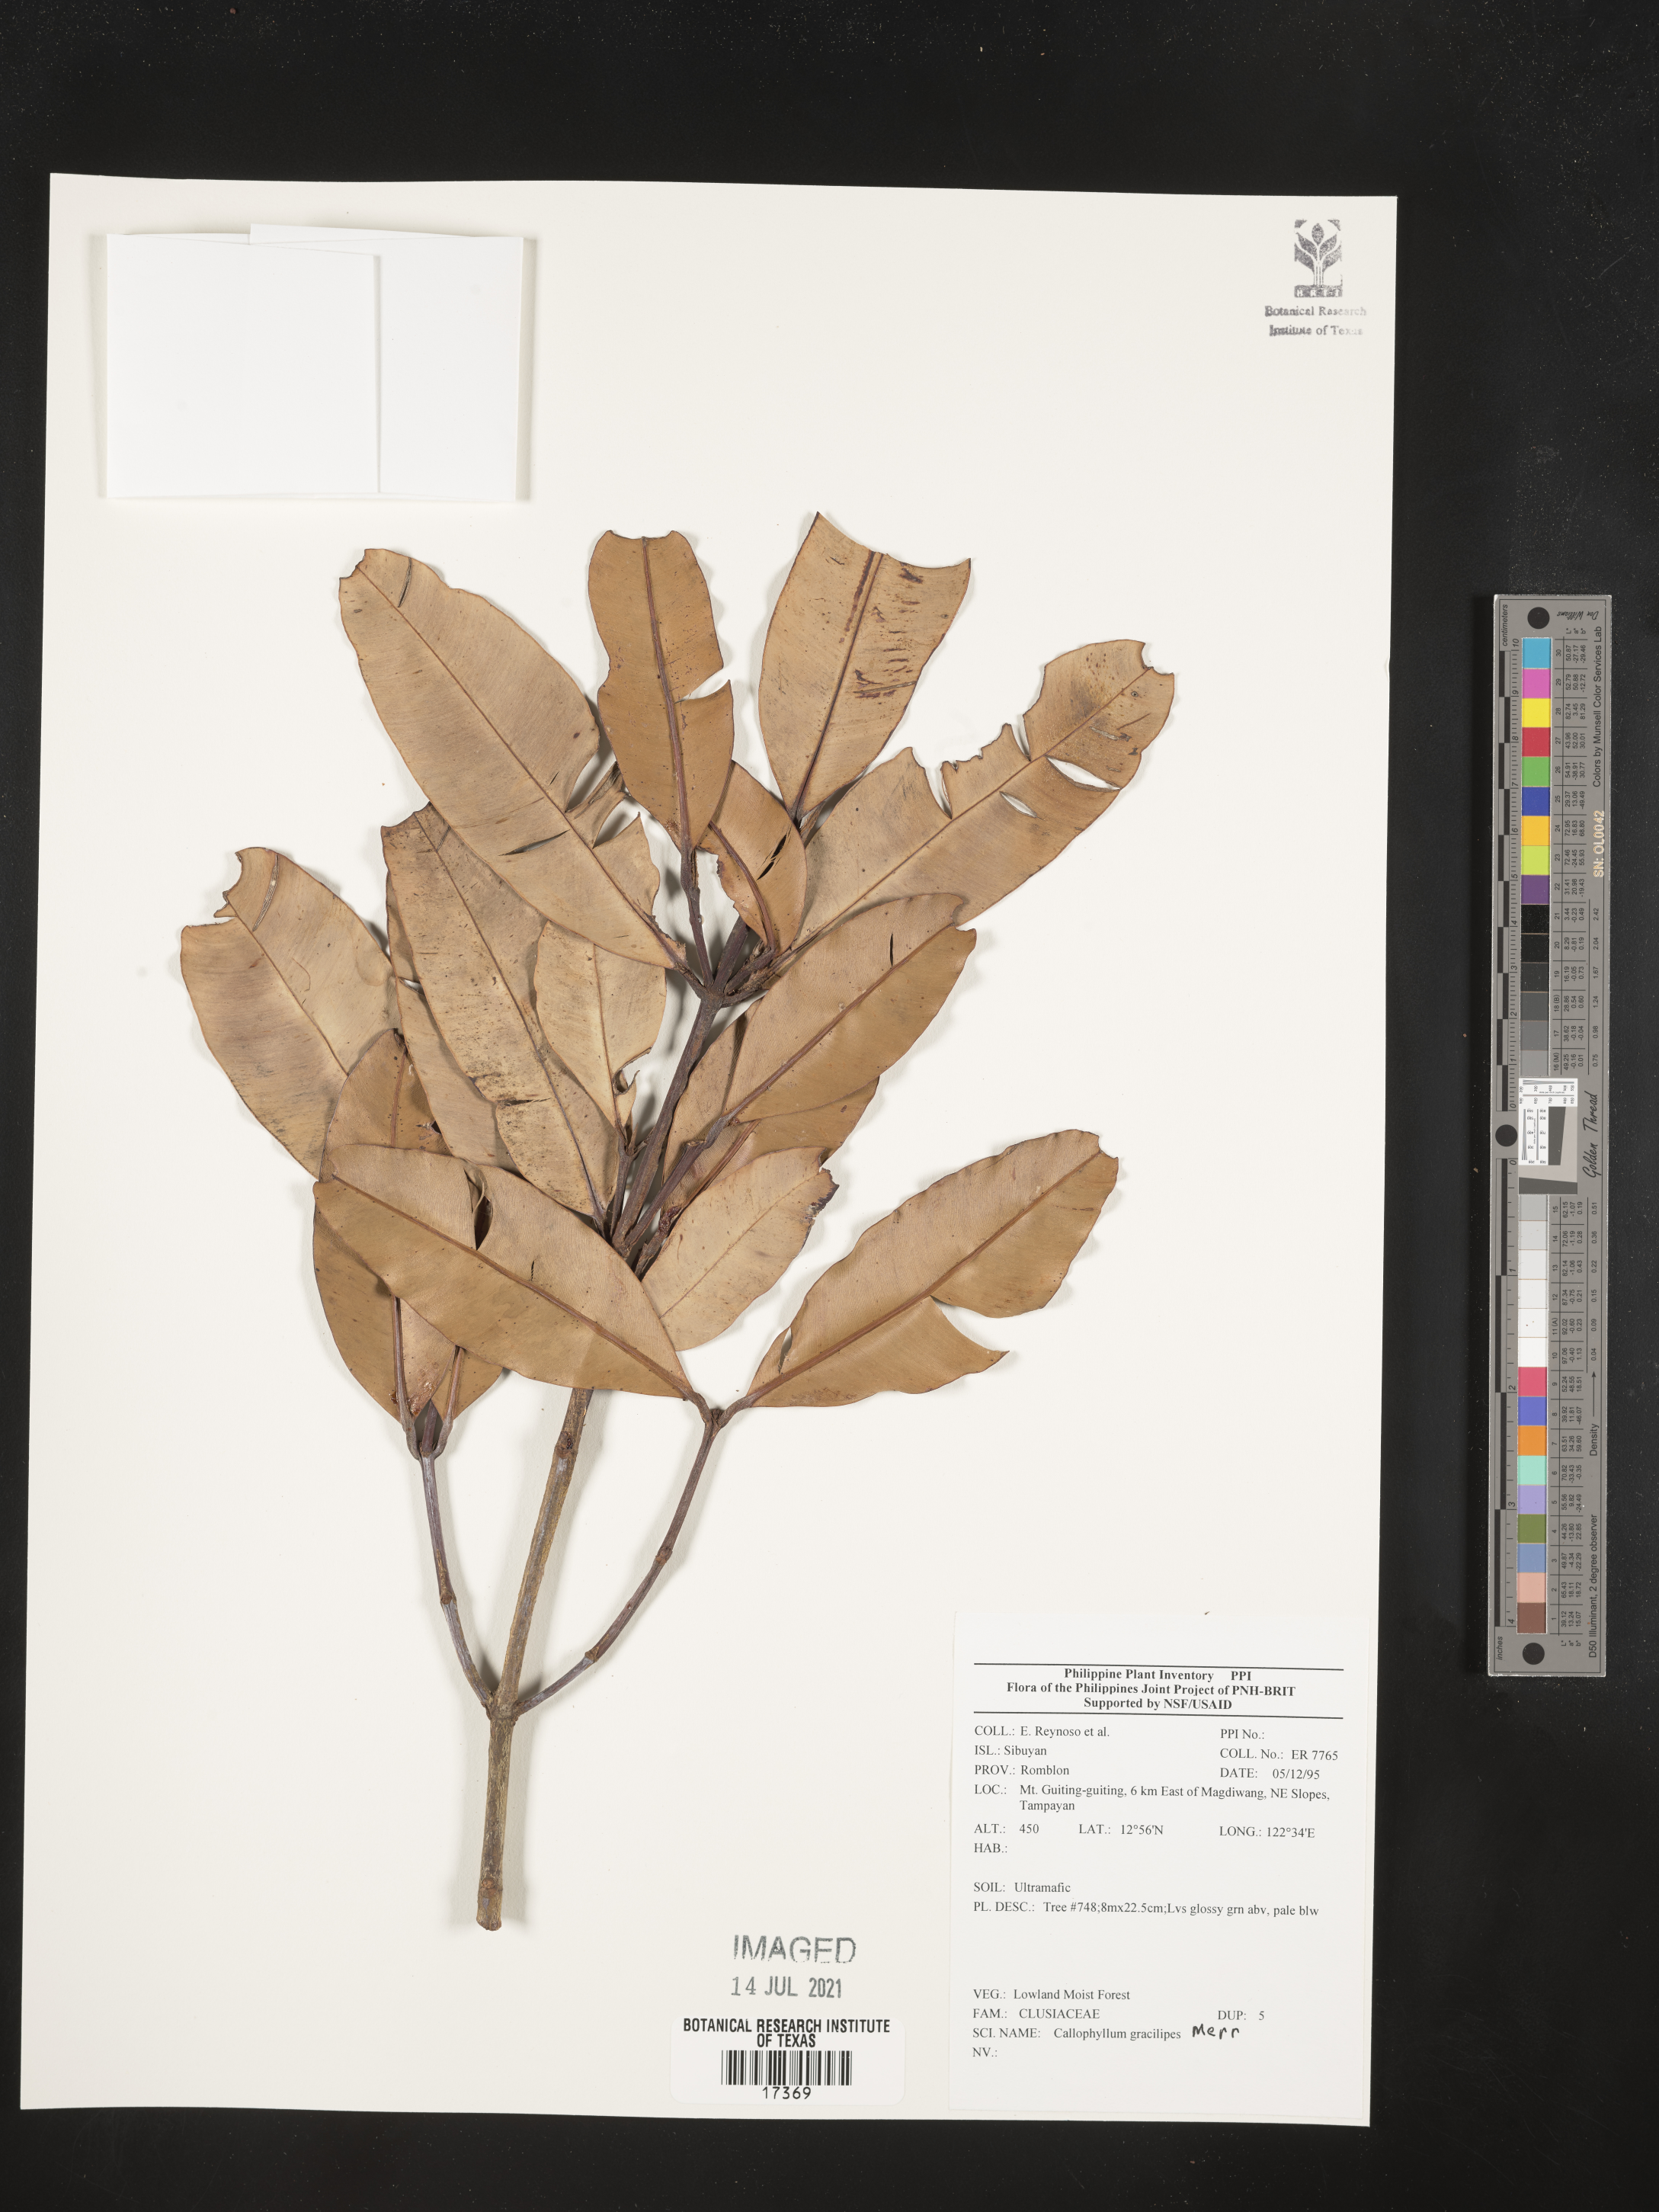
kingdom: Plantae
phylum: Tracheophyta
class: Magnoliopsida
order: Malpighiales
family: Calophyllaceae
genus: Calophyllum
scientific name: Calophyllum gracilipes
